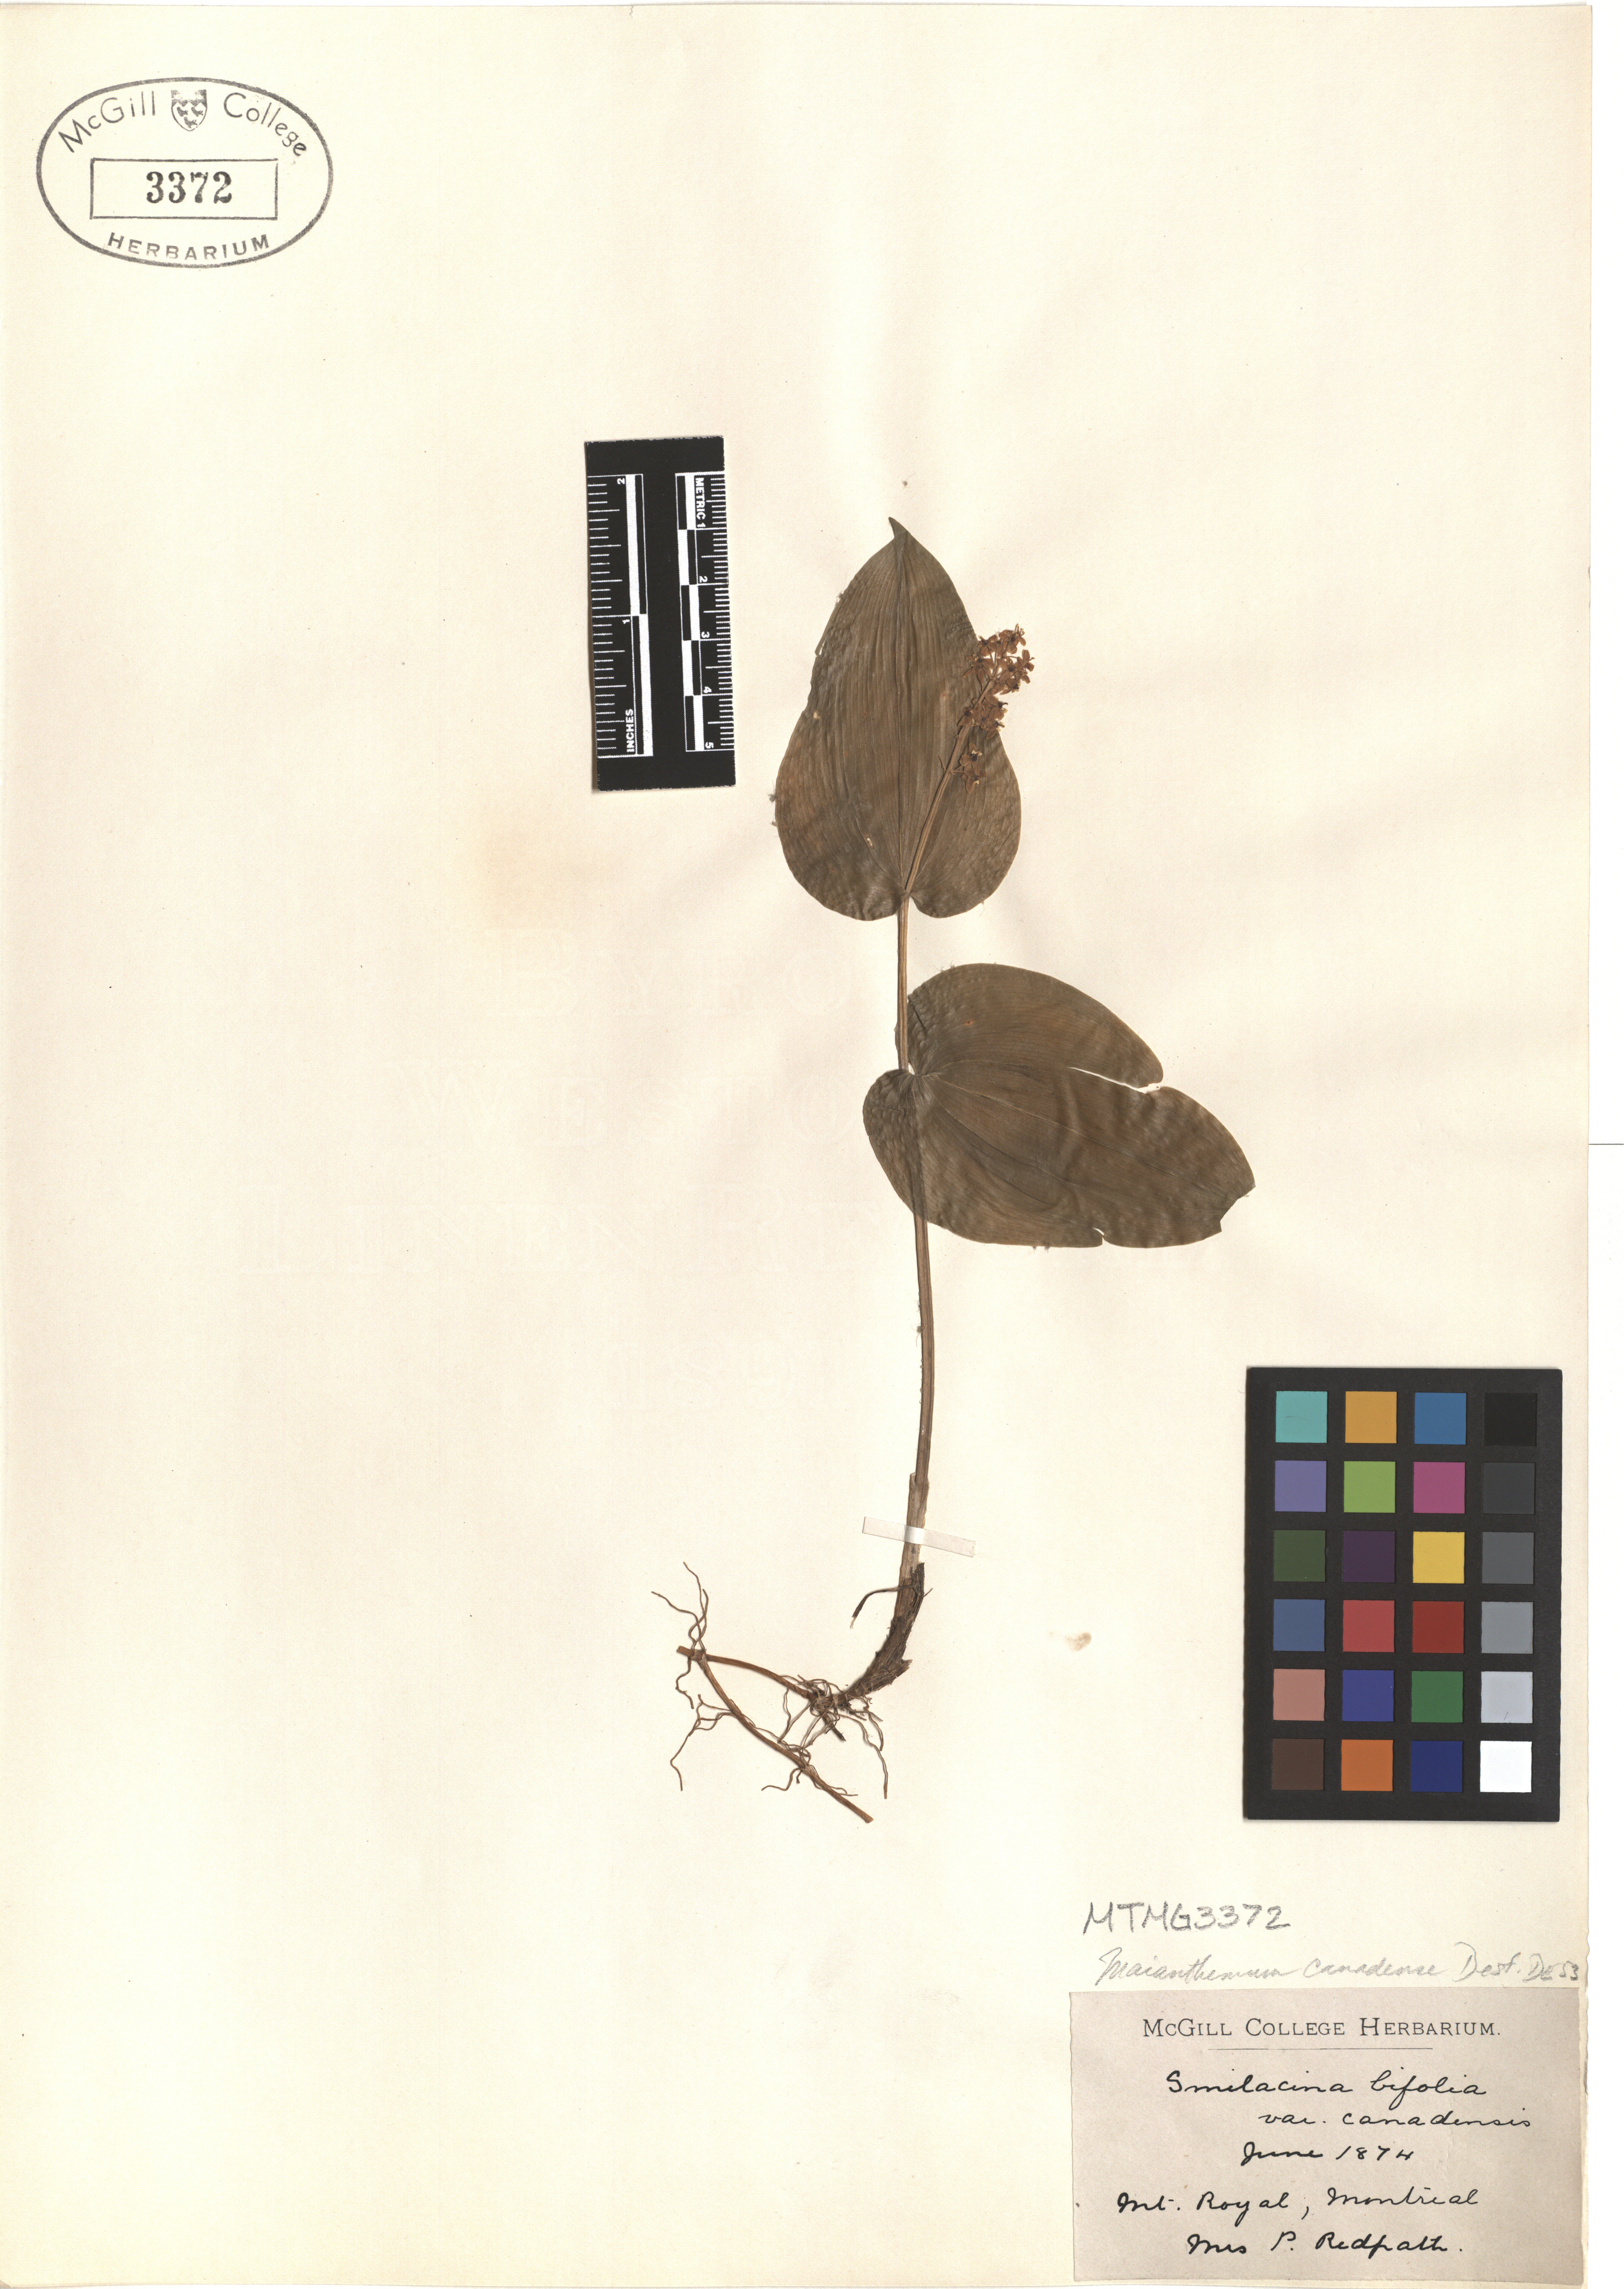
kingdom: Plantae
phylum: Tracheophyta
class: Liliopsida
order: Asparagales
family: Asparagaceae
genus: Maianthemum
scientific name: Maianthemum canadense
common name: False lily-of-the-valley
